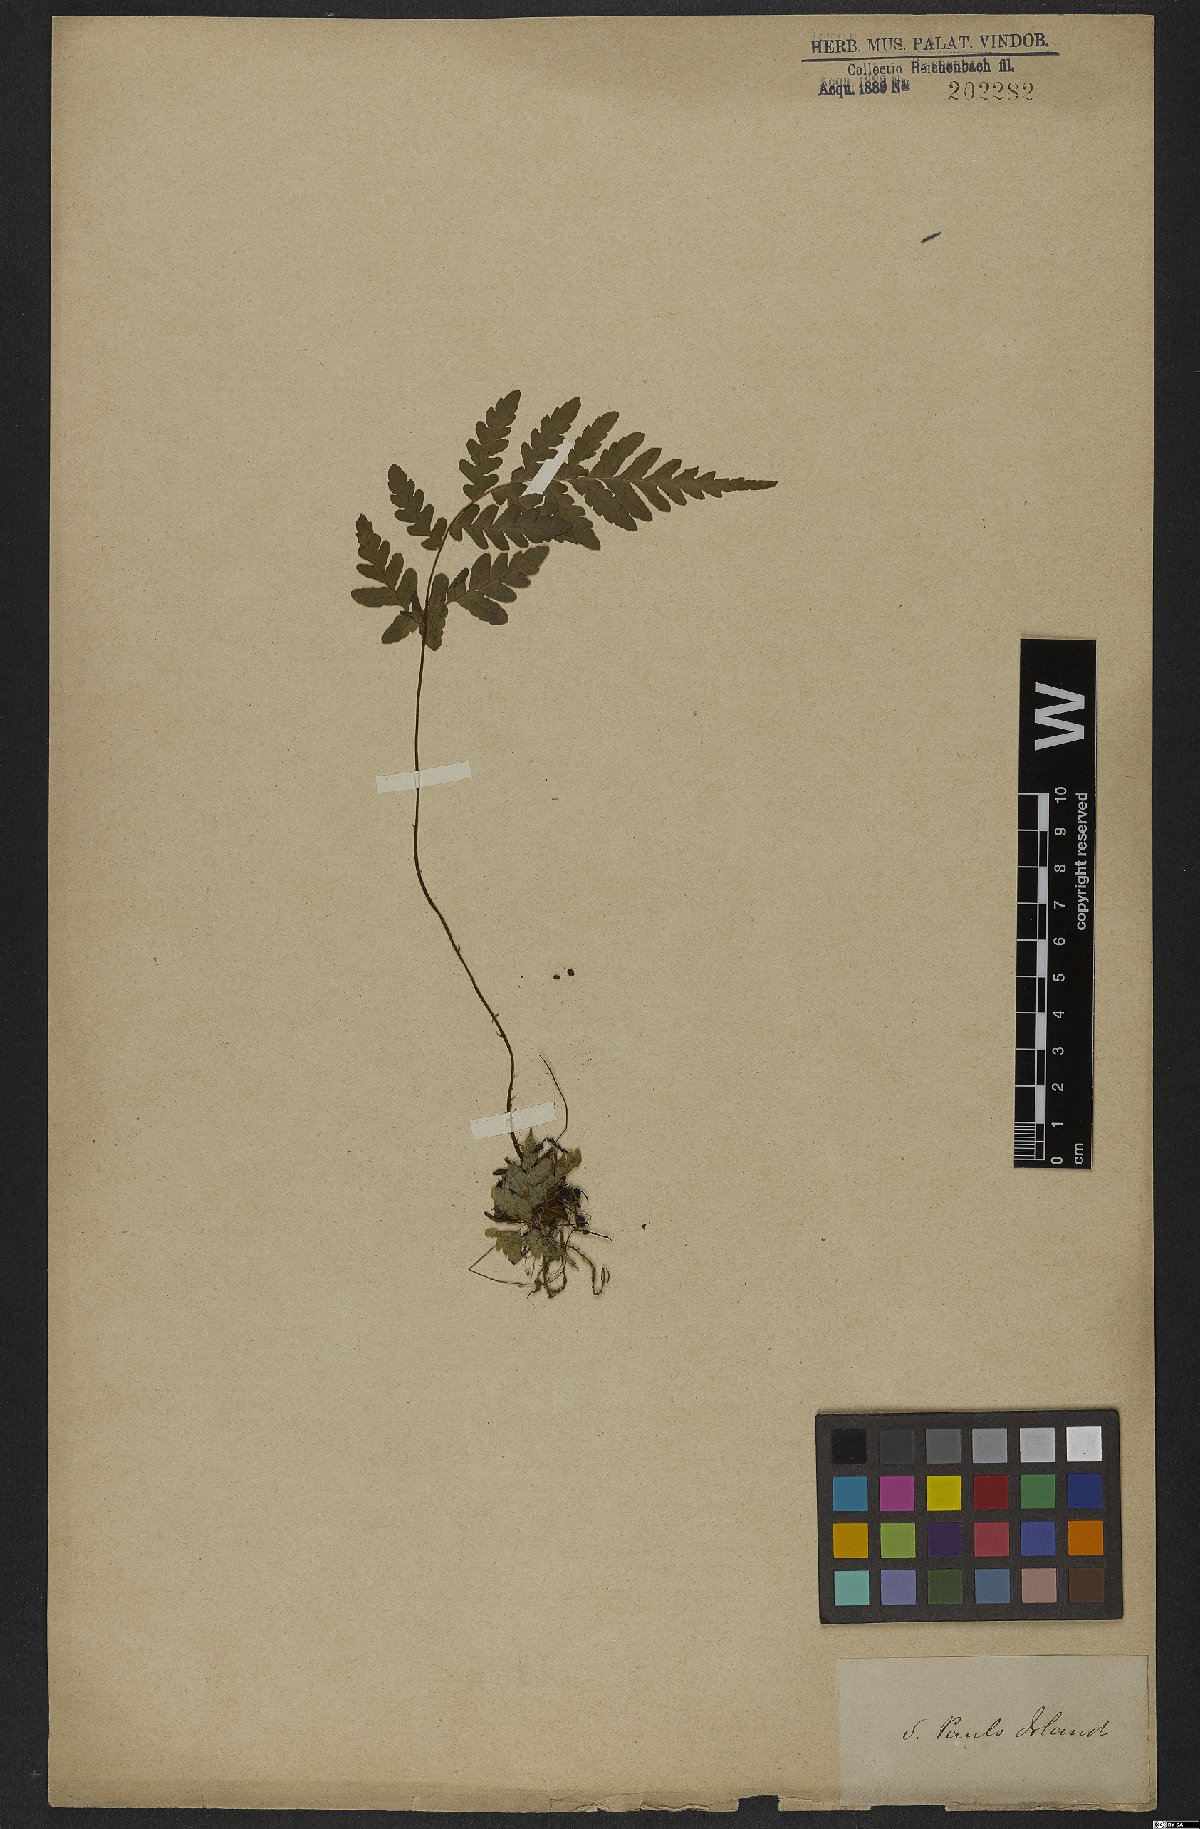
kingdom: Plantae
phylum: Tracheophyta
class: Polypodiopsida
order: Polypodiales
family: Tectariaceae
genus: Triplophyllum
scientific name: Triplophyllum protensum
